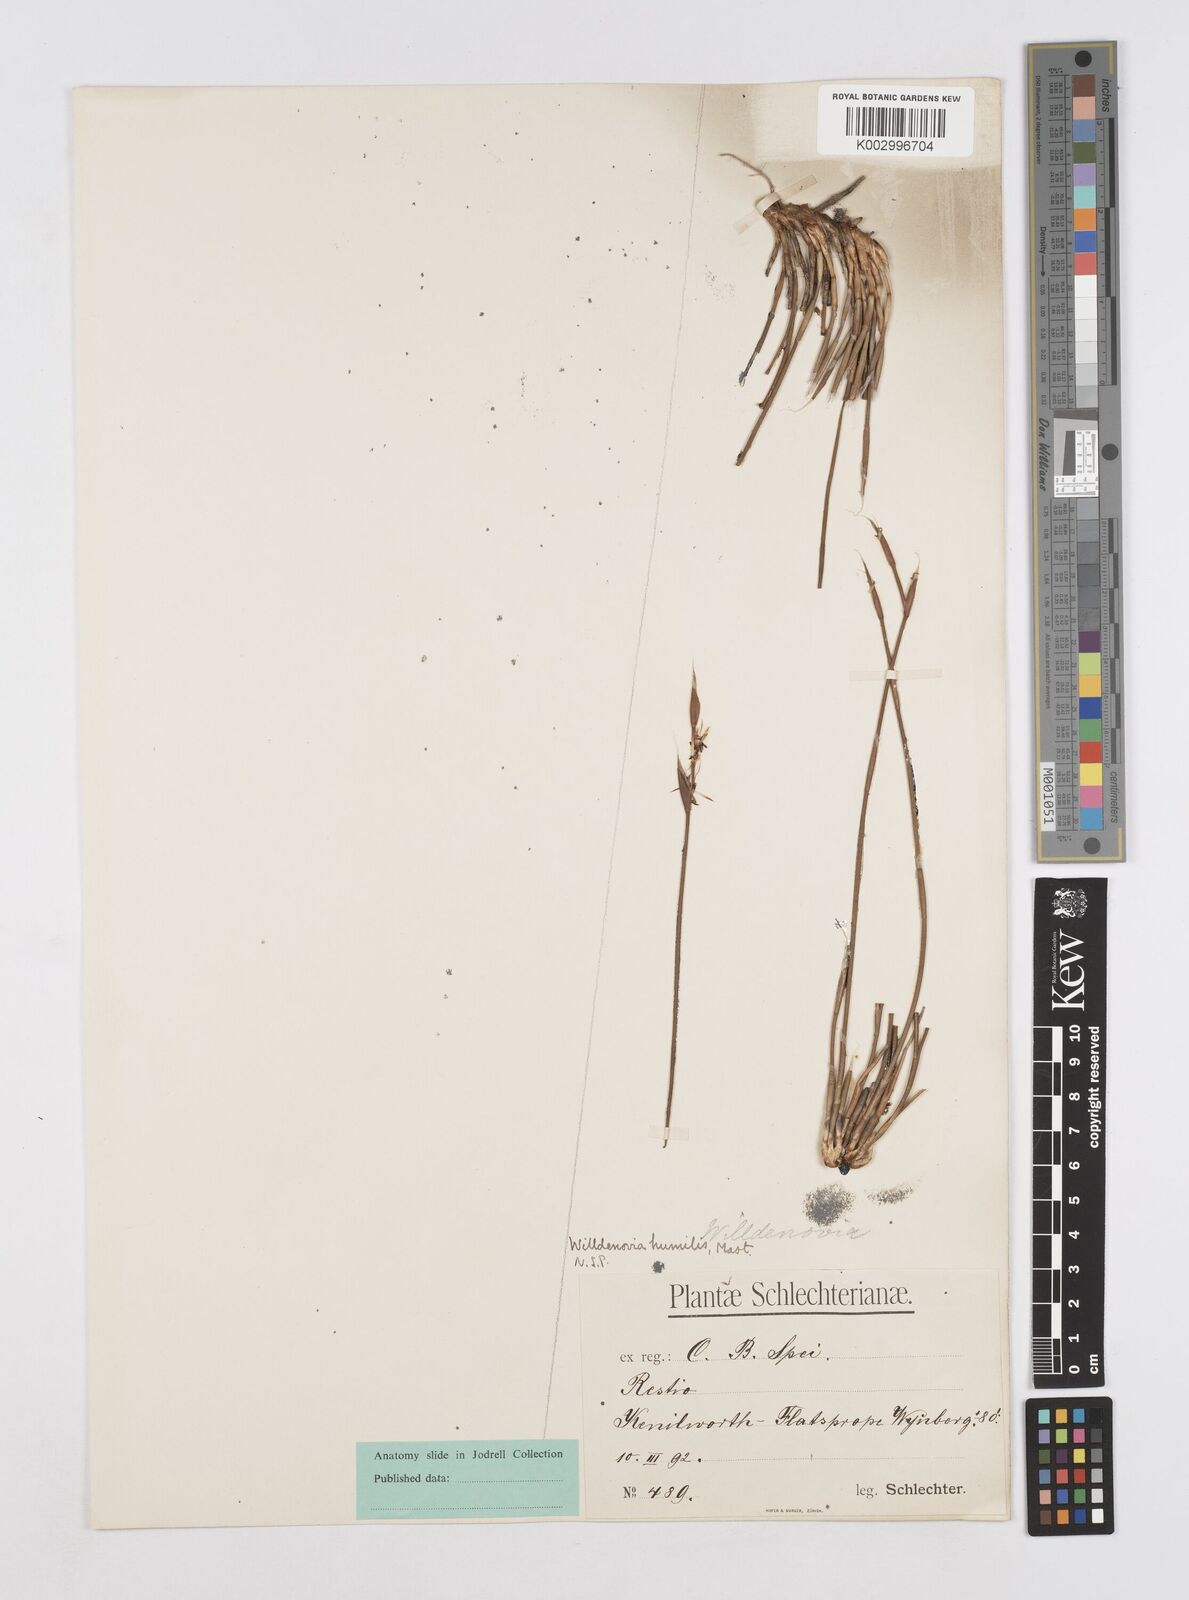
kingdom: Plantae
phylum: Tracheophyta
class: Liliopsida
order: Poales
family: Restionaceae
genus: Willdenowia
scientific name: Willdenowia humilis
